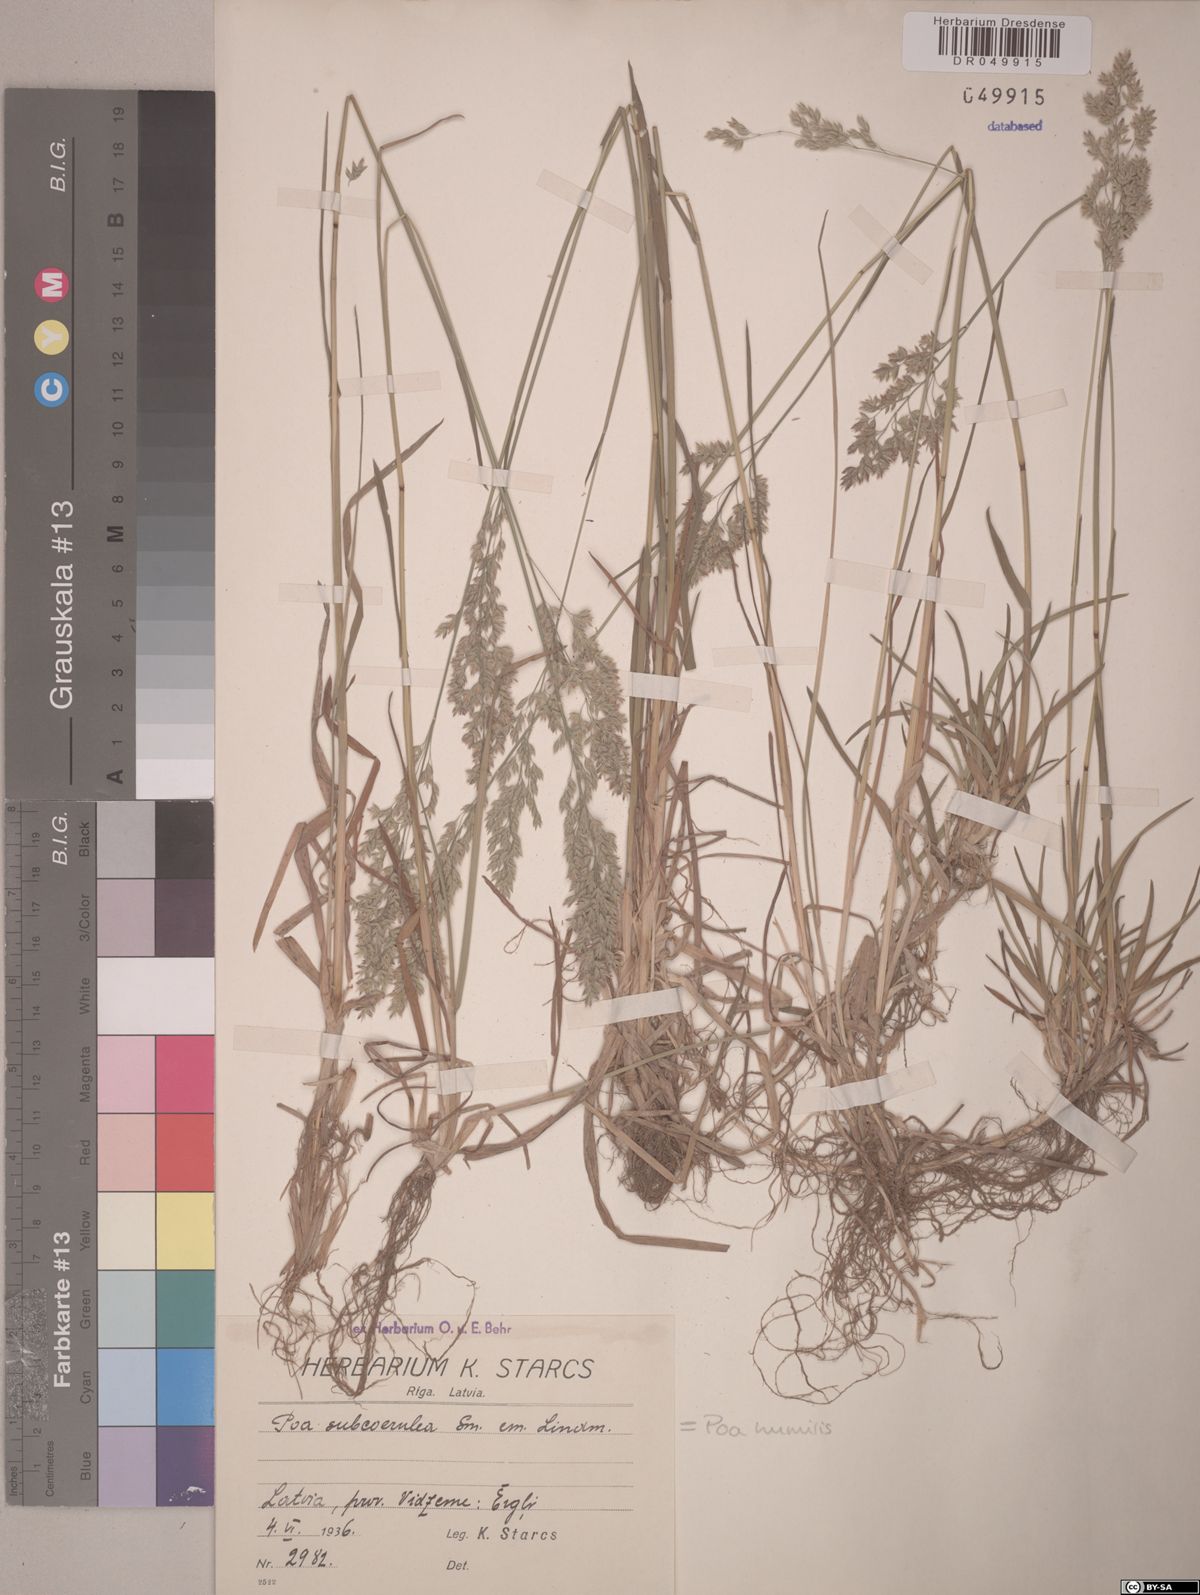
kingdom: Plantae
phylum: Tracheophyta
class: Liliopsida
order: Poales
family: Poaceae
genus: Poa
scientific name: Poa humilis
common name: Spreading meadow-grass
